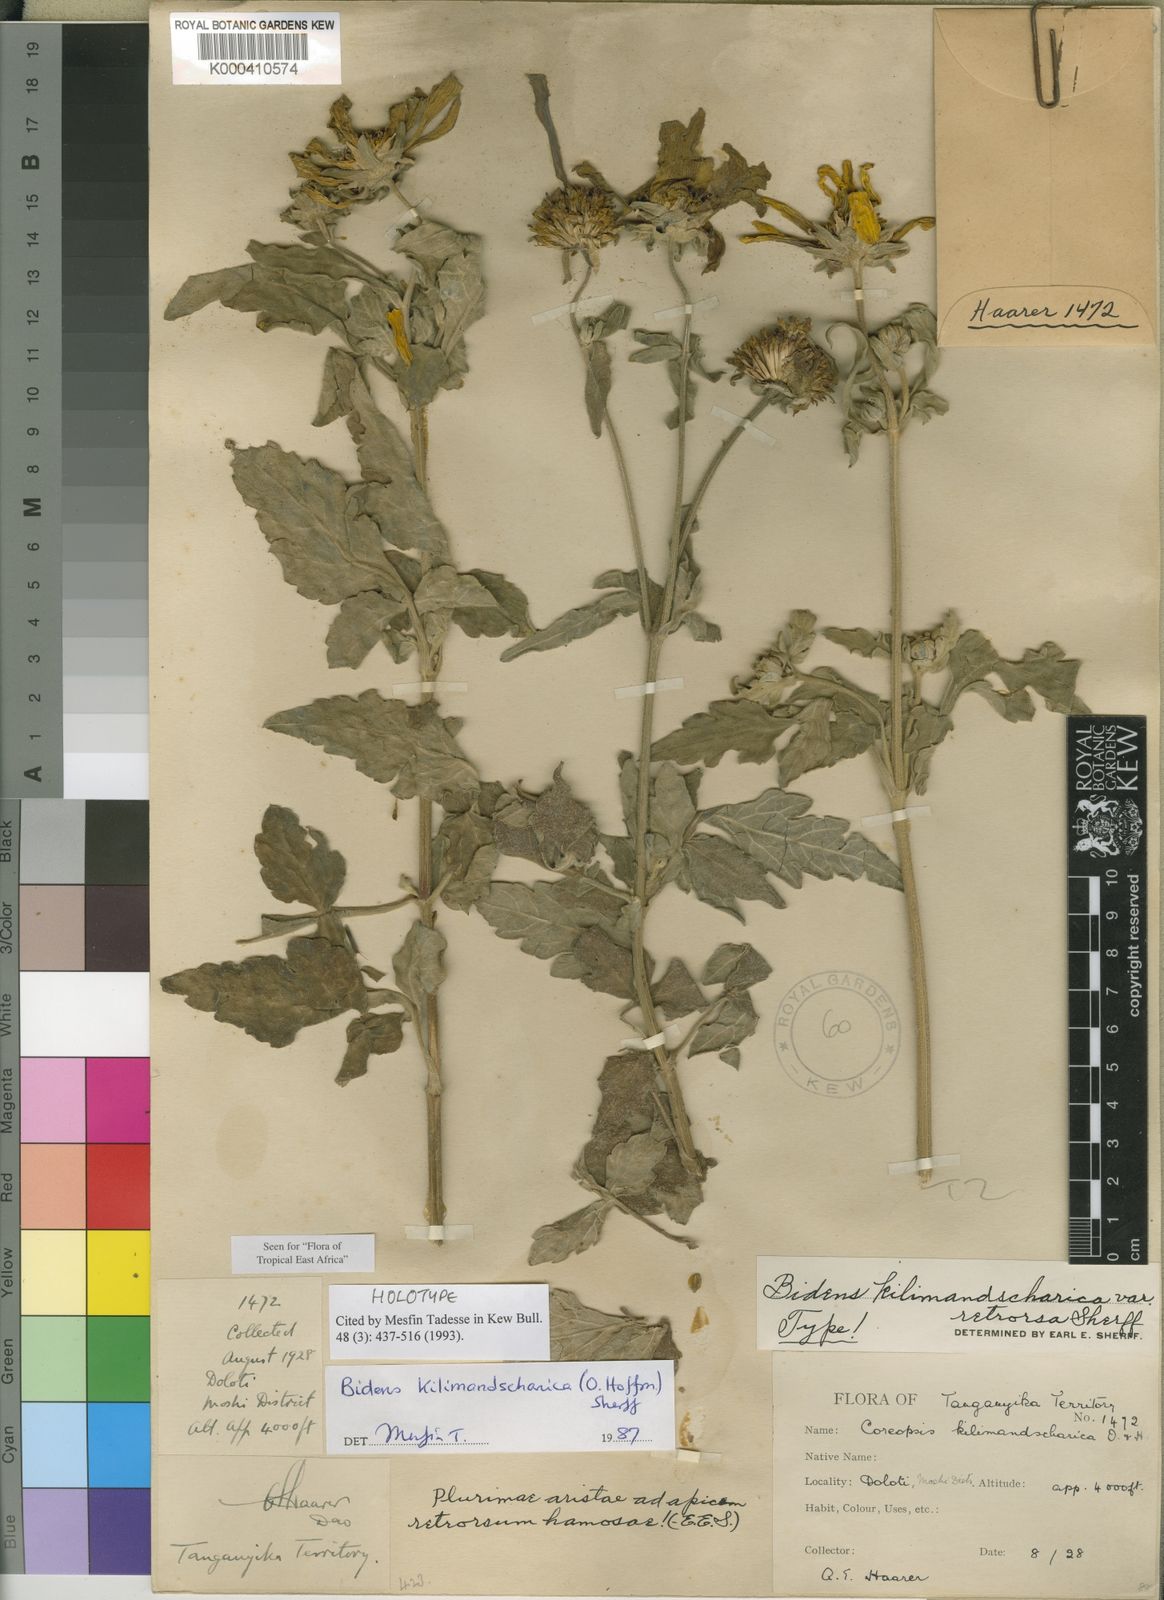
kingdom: Plantae
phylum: Tracheophyta
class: Magnoliopsida
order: Asterales
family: Asteraceae
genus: Bidens
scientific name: Bidens kilimandscharica
